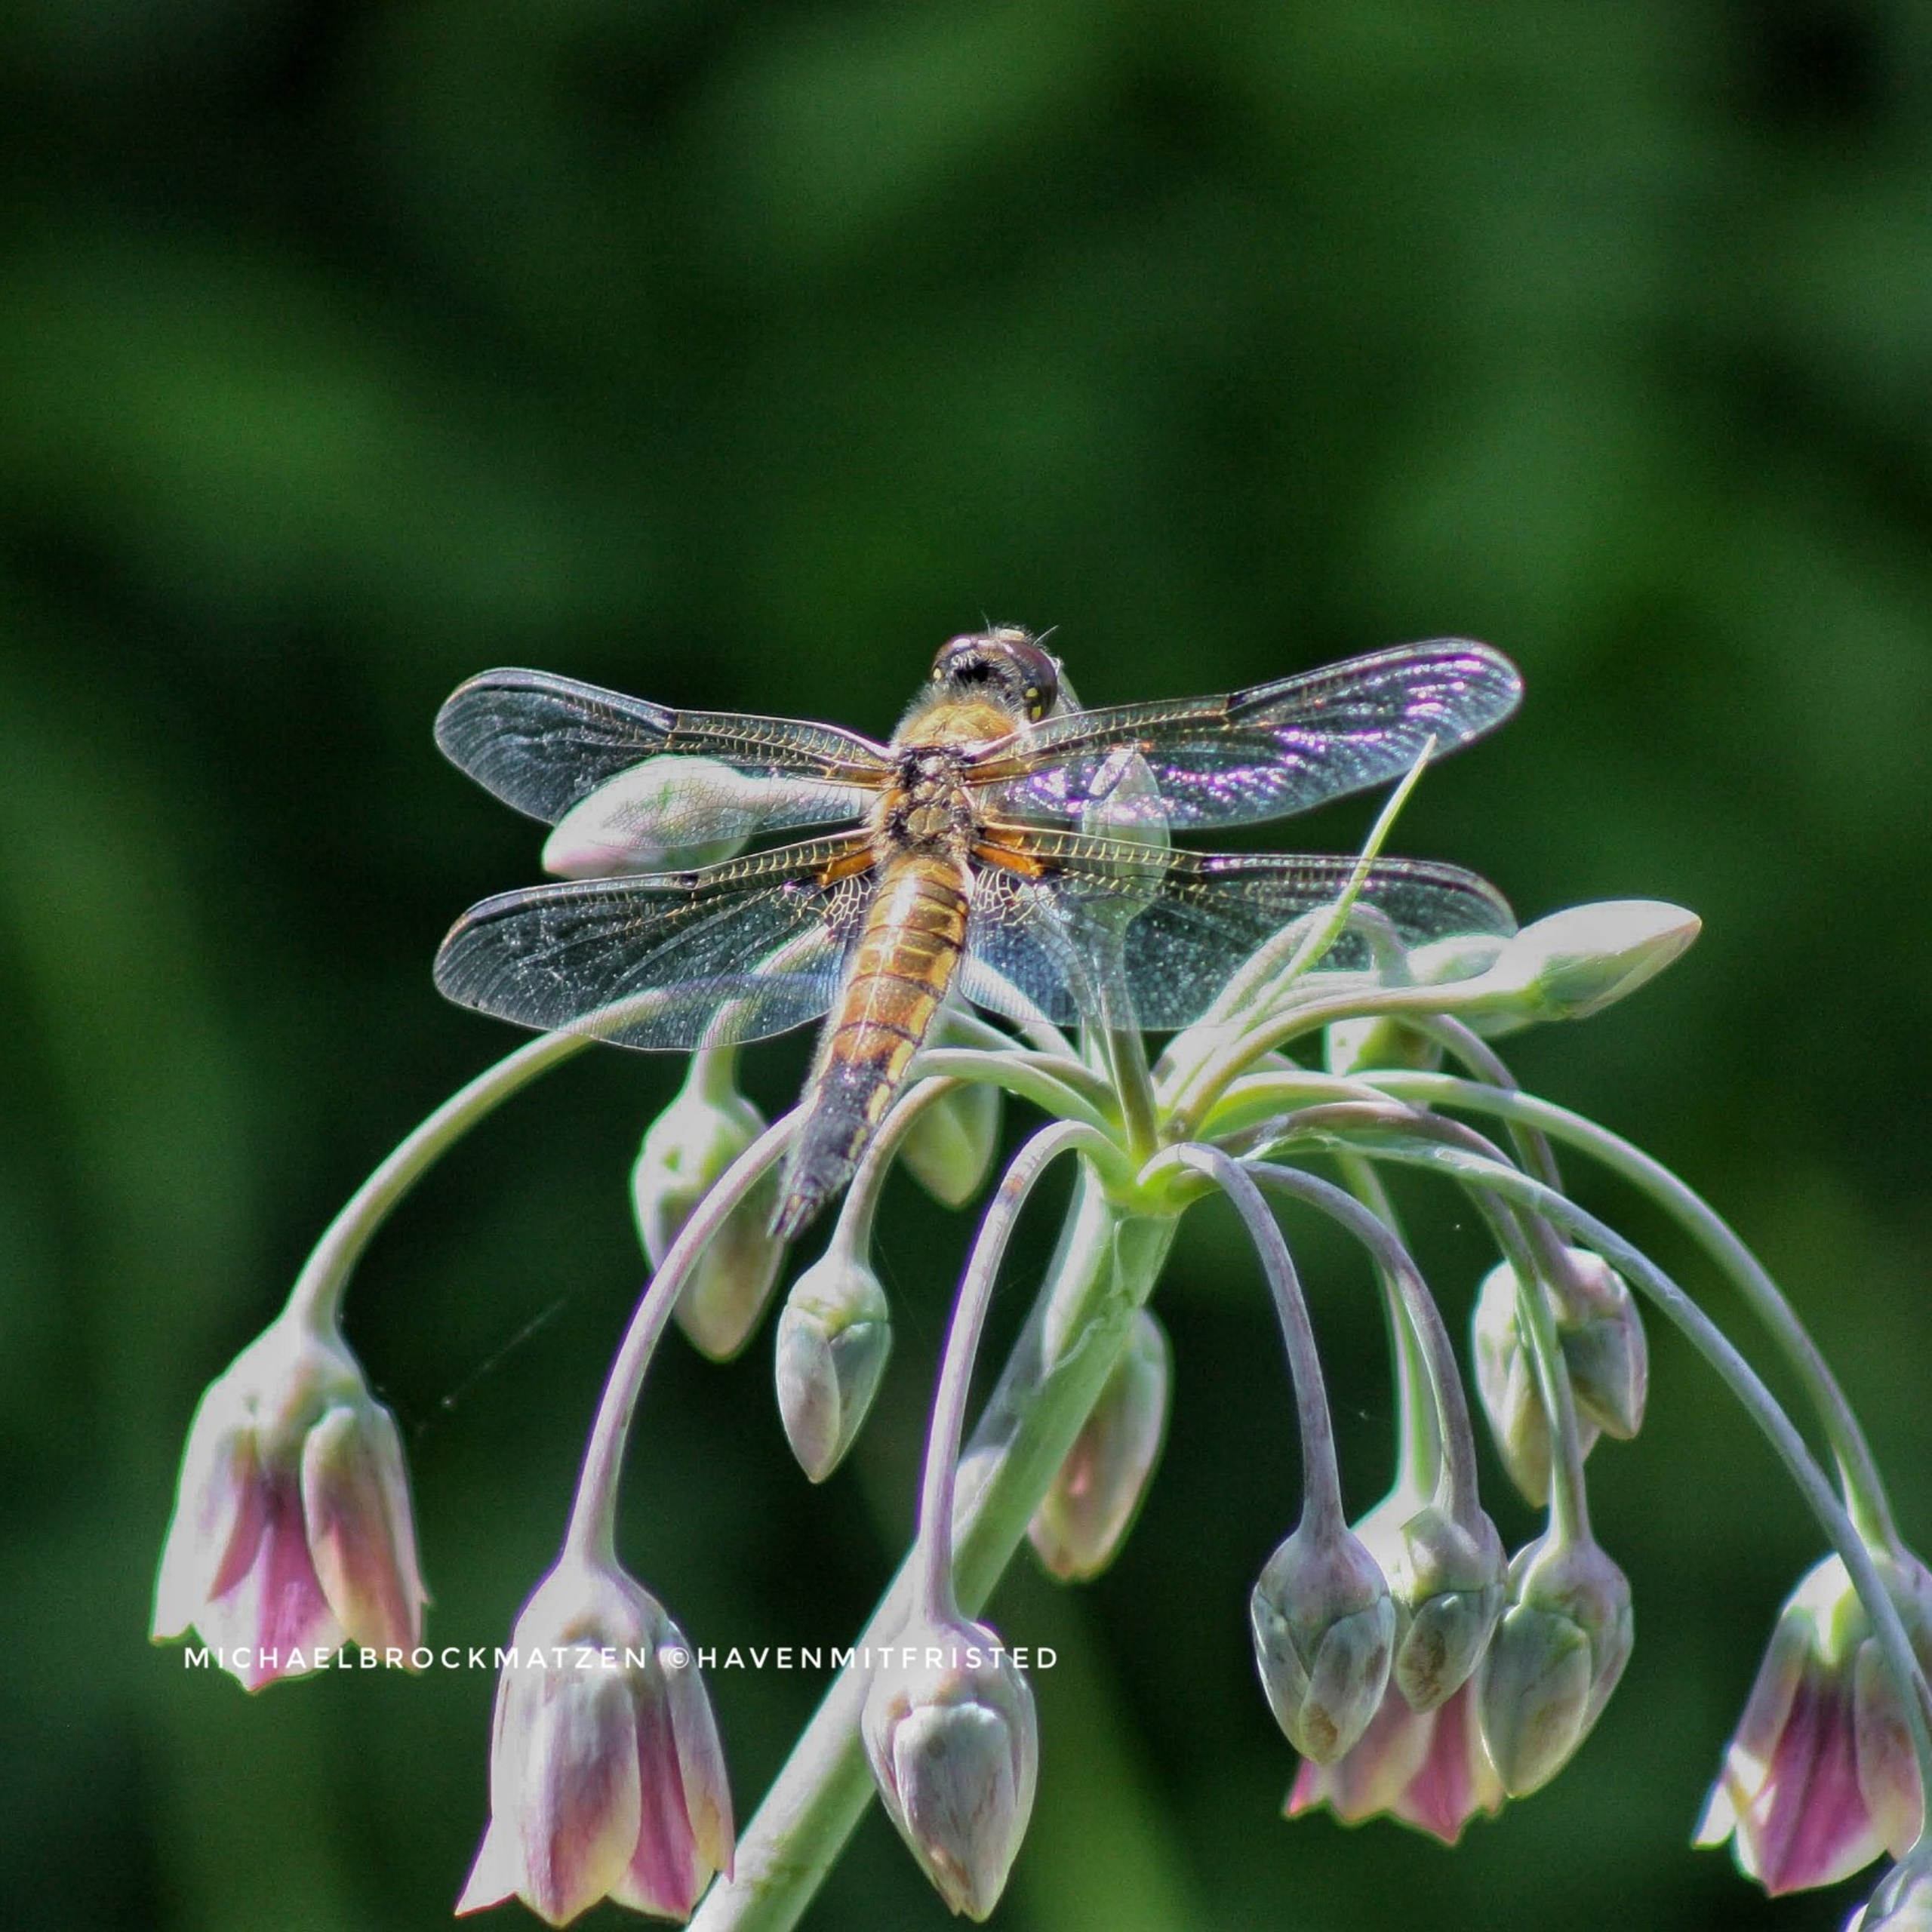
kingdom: Animalia
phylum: Arthropoda
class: Insecta
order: Odonata
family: Libellulidae
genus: Libellula
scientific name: Libellula quadrimaculata
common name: Fireplettet libel
